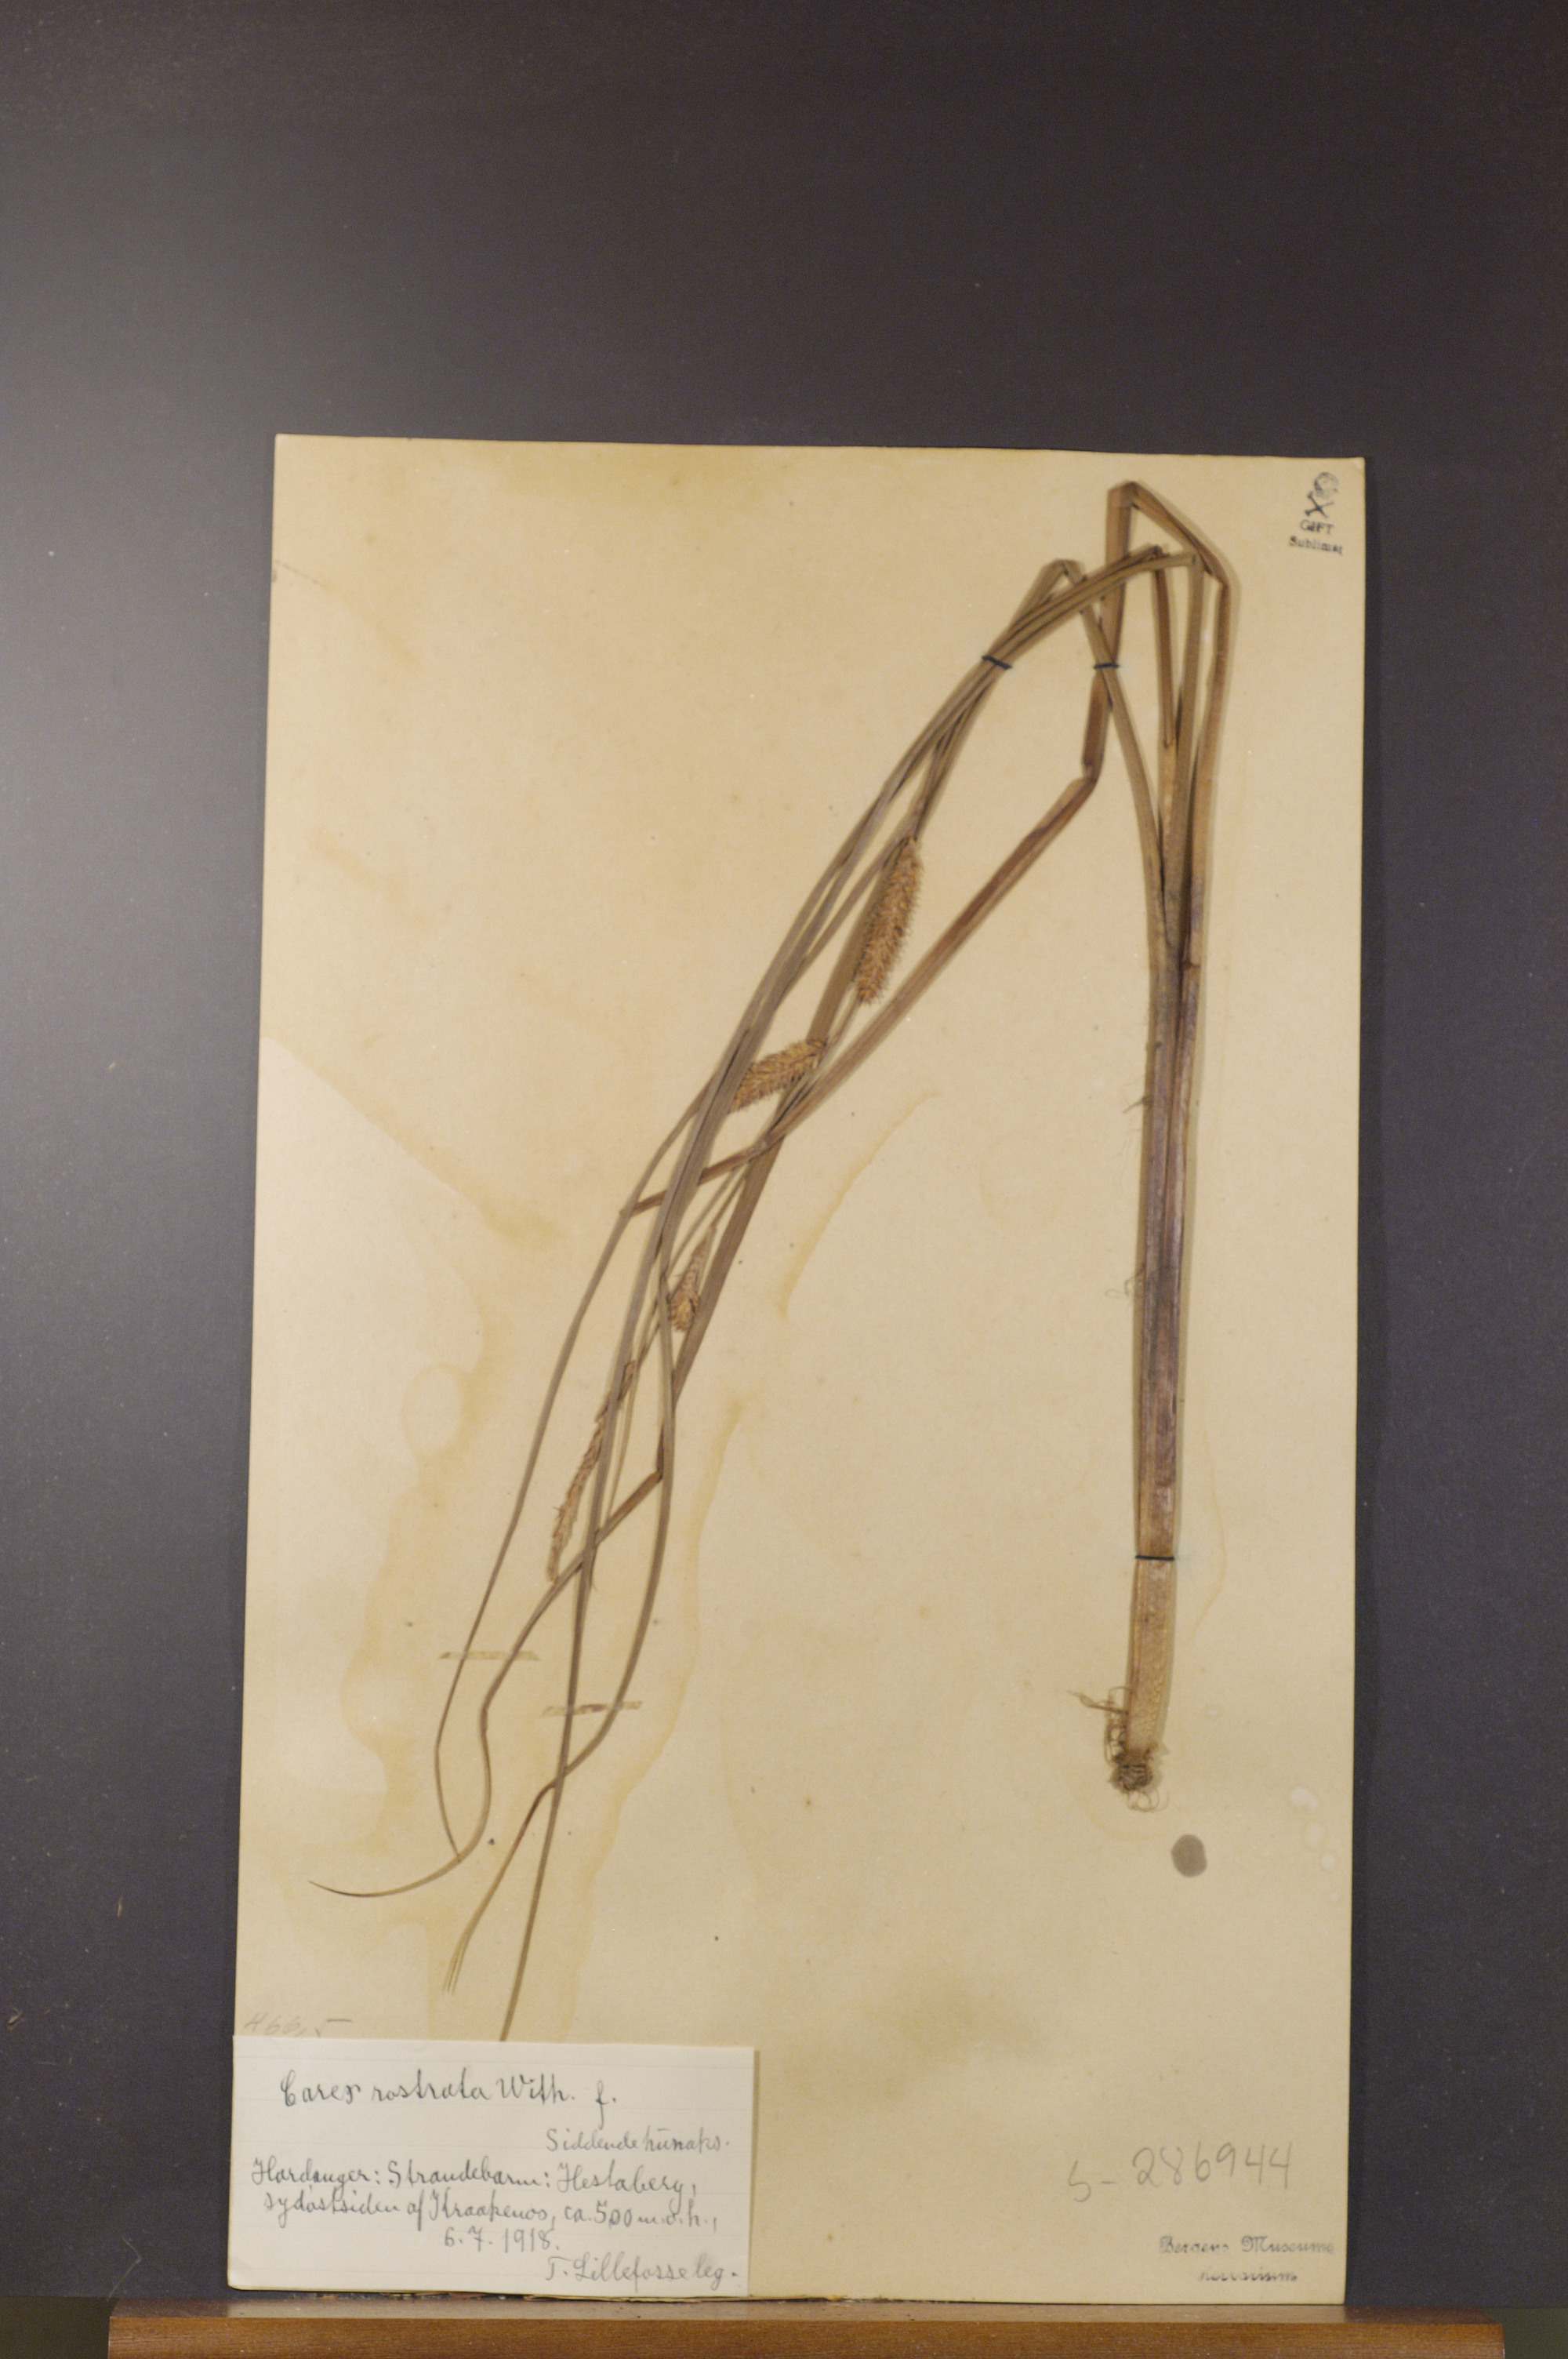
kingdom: Plantae
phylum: Tracheophyta
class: Liliopsida
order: Poales
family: Cyperaceae
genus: Carex
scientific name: Carex rostrata
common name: Bottle sedge
